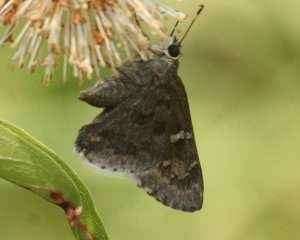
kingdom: Animalia
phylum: Arthropoda
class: Insecta
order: Lepidoptera
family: Hesperiidae
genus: Cogia
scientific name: Cogia hippalus
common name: Acacia Skipper
